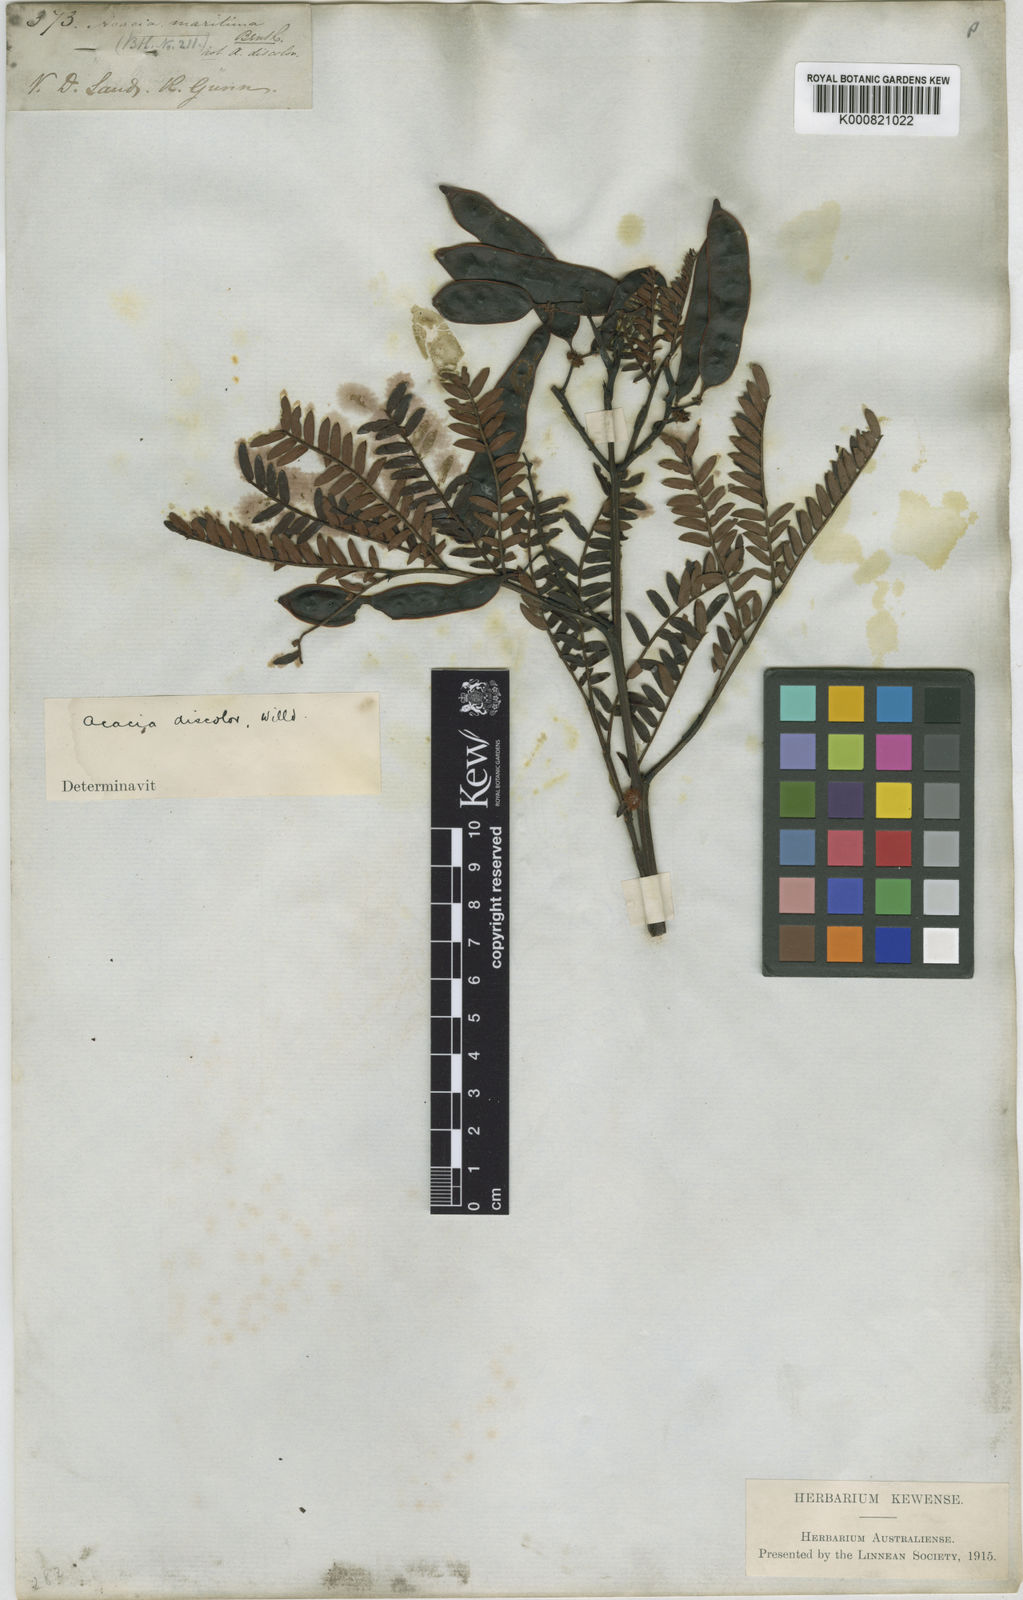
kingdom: Plantae
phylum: Tracheophyta
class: Magnoliopsida
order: Fabales
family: Fabaceae
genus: Acacia
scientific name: Acacia terminalis
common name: Cedar wattle
